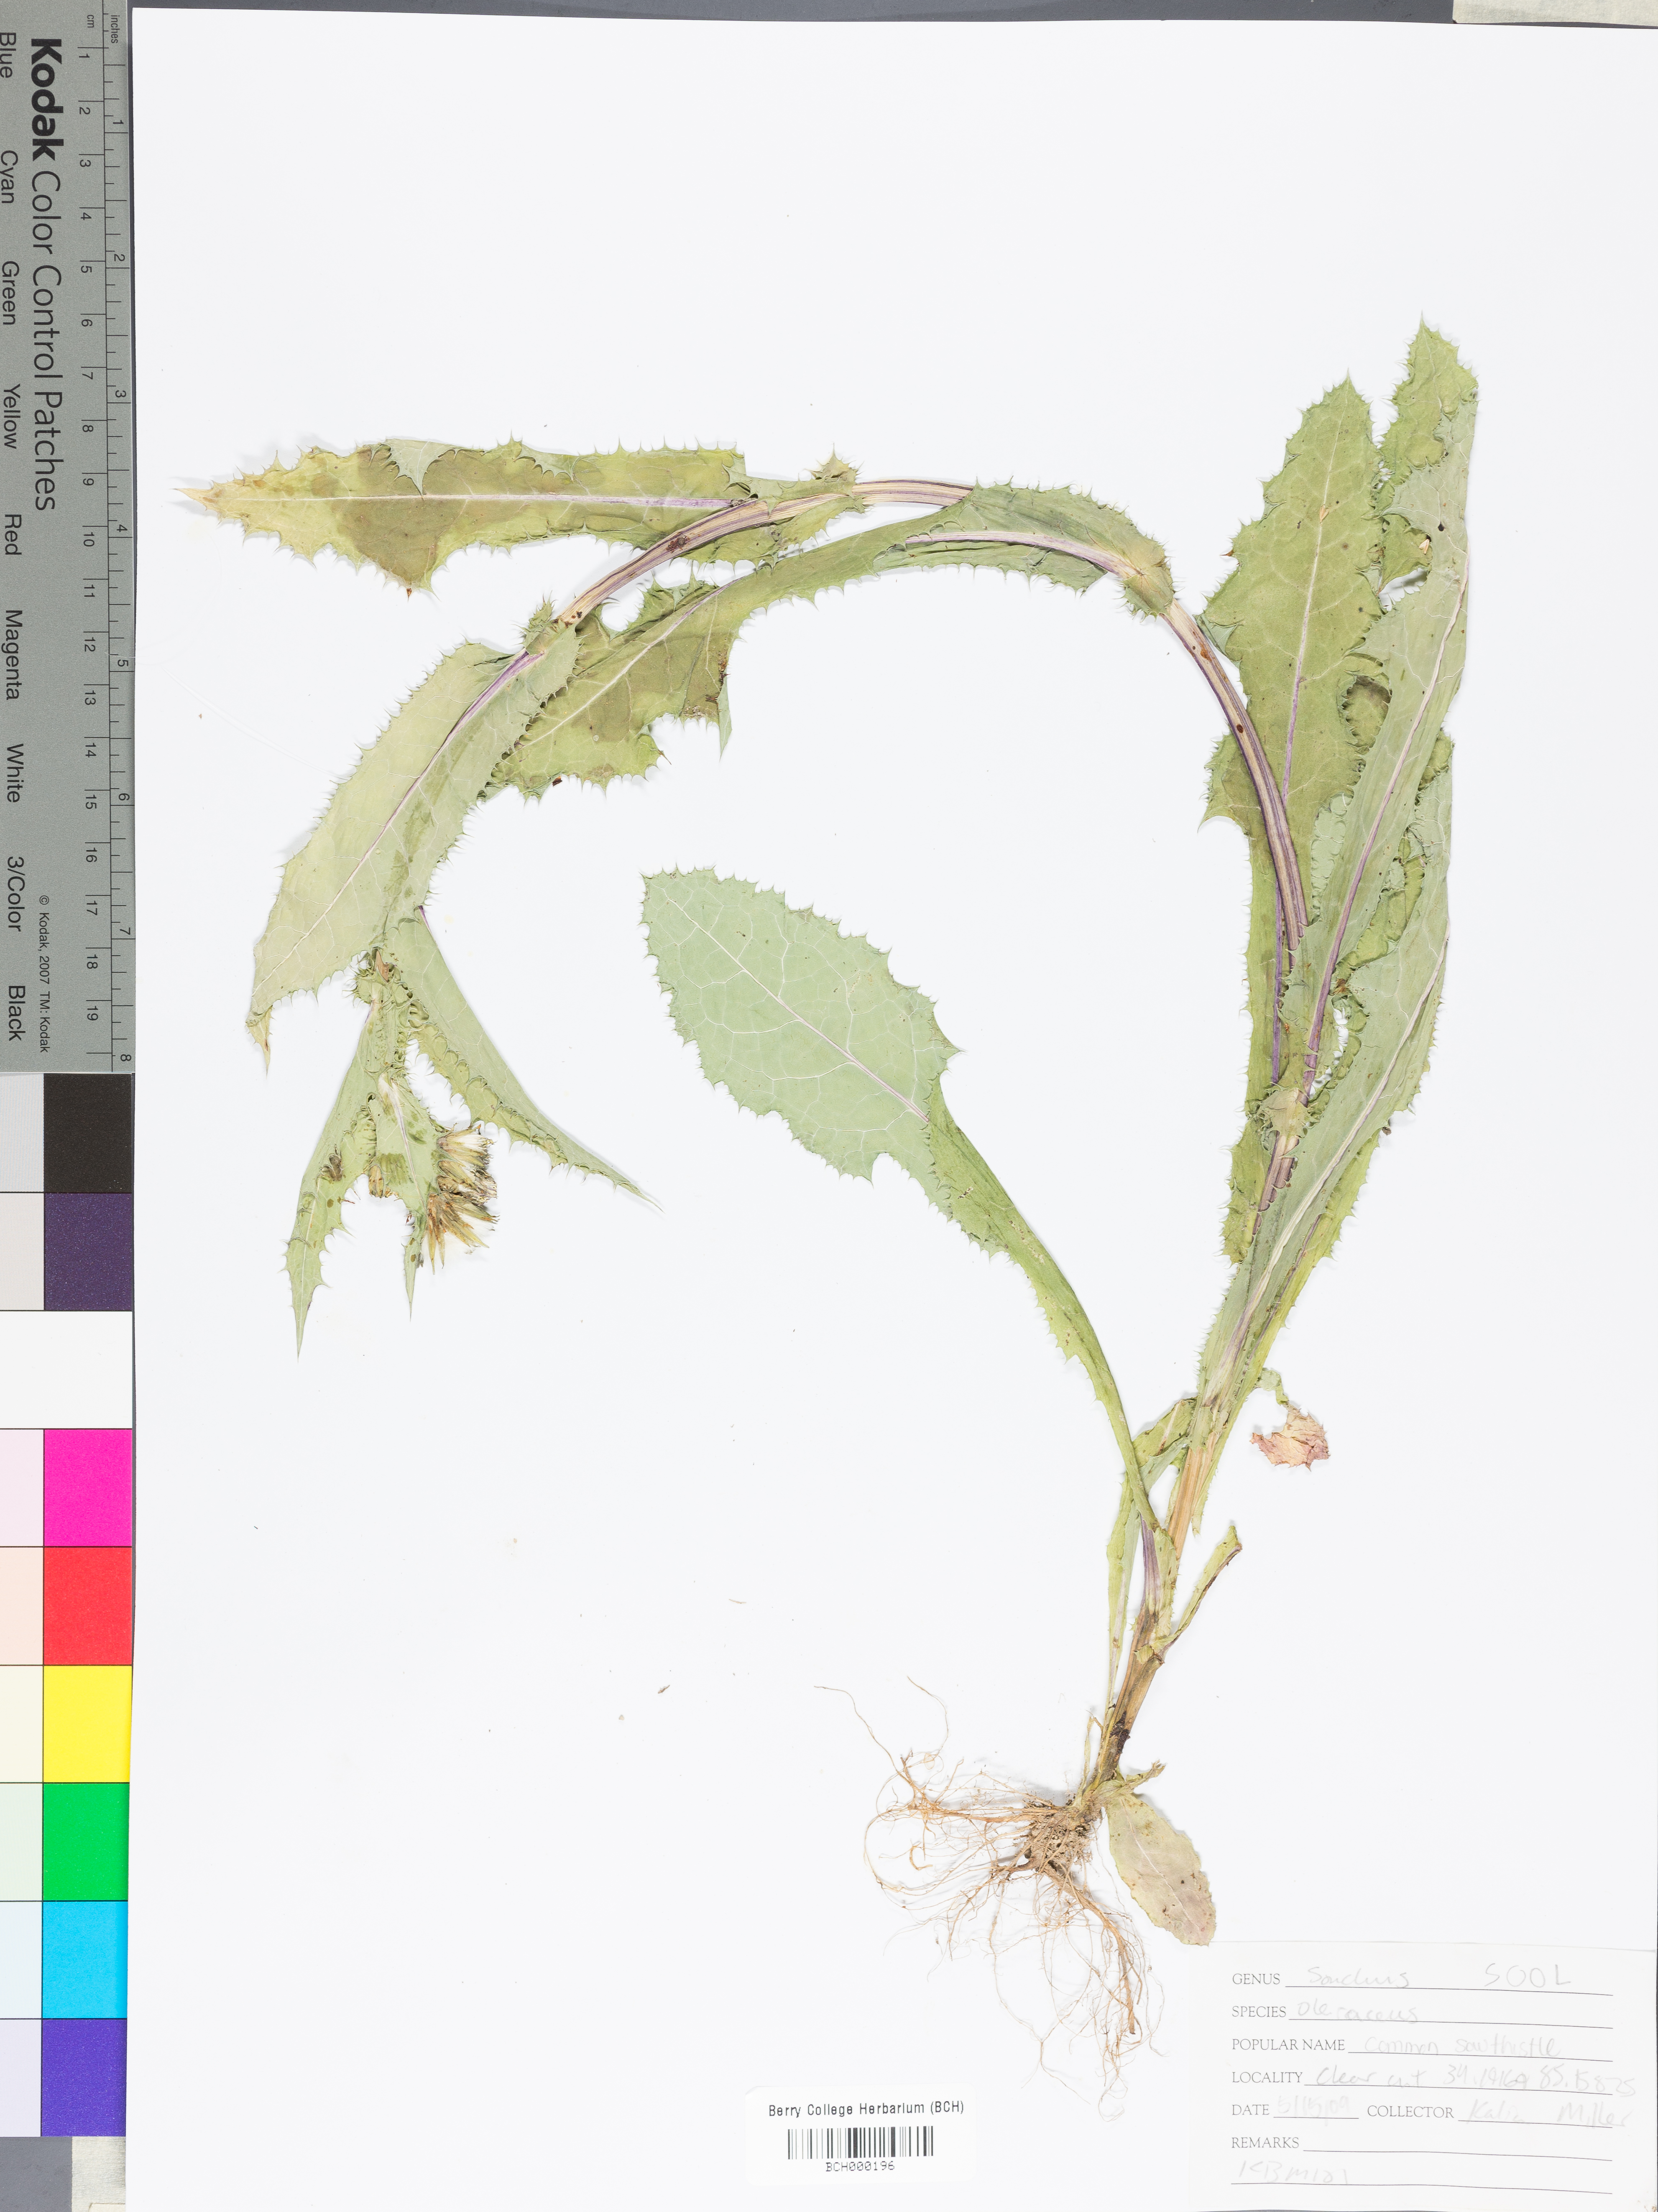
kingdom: Plantae
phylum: Tracheophyta
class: Magnoliopsida
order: Asterales
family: Asteraceae
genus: Sonchus
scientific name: Sonchus oleraceus
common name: Common sowthistle
